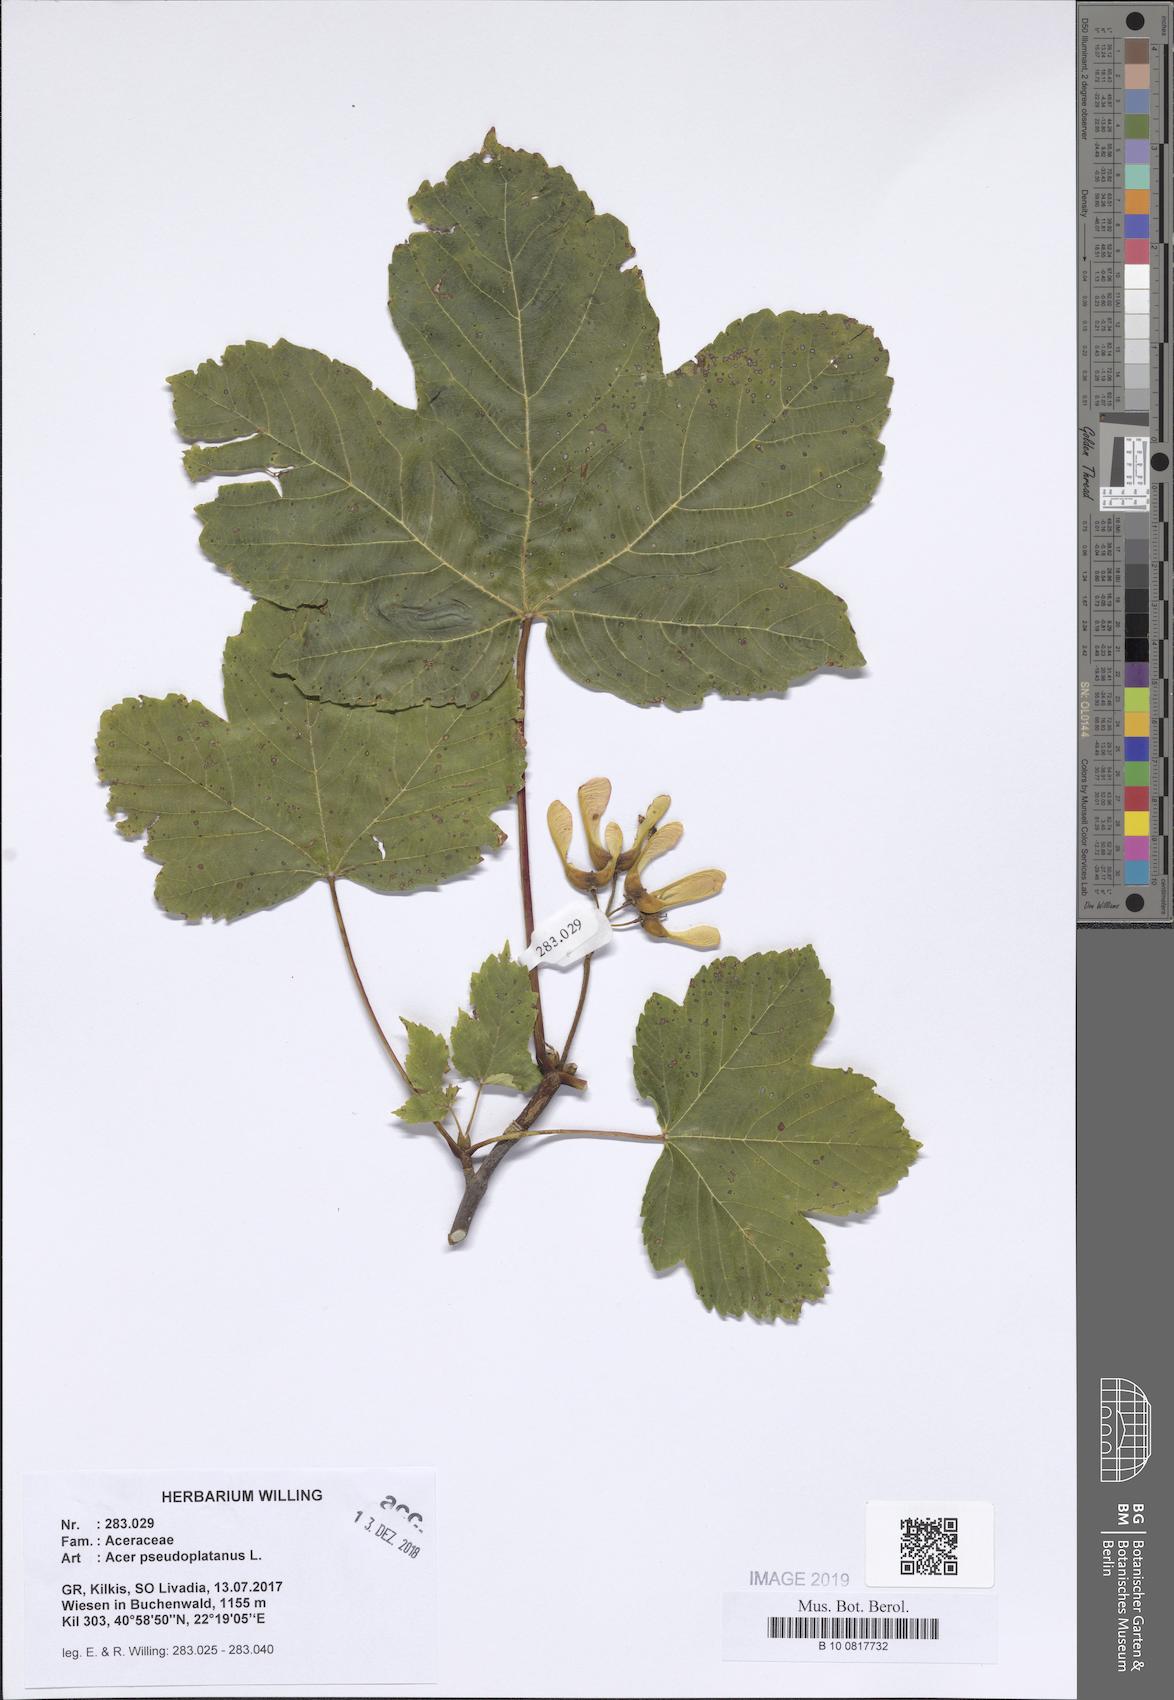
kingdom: Plantae
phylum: Tracheophyta
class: Magnoliopsida
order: Sapindales
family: Sapindaceae
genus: Acer
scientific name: Acer pseudoplatanus
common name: Sycamore
